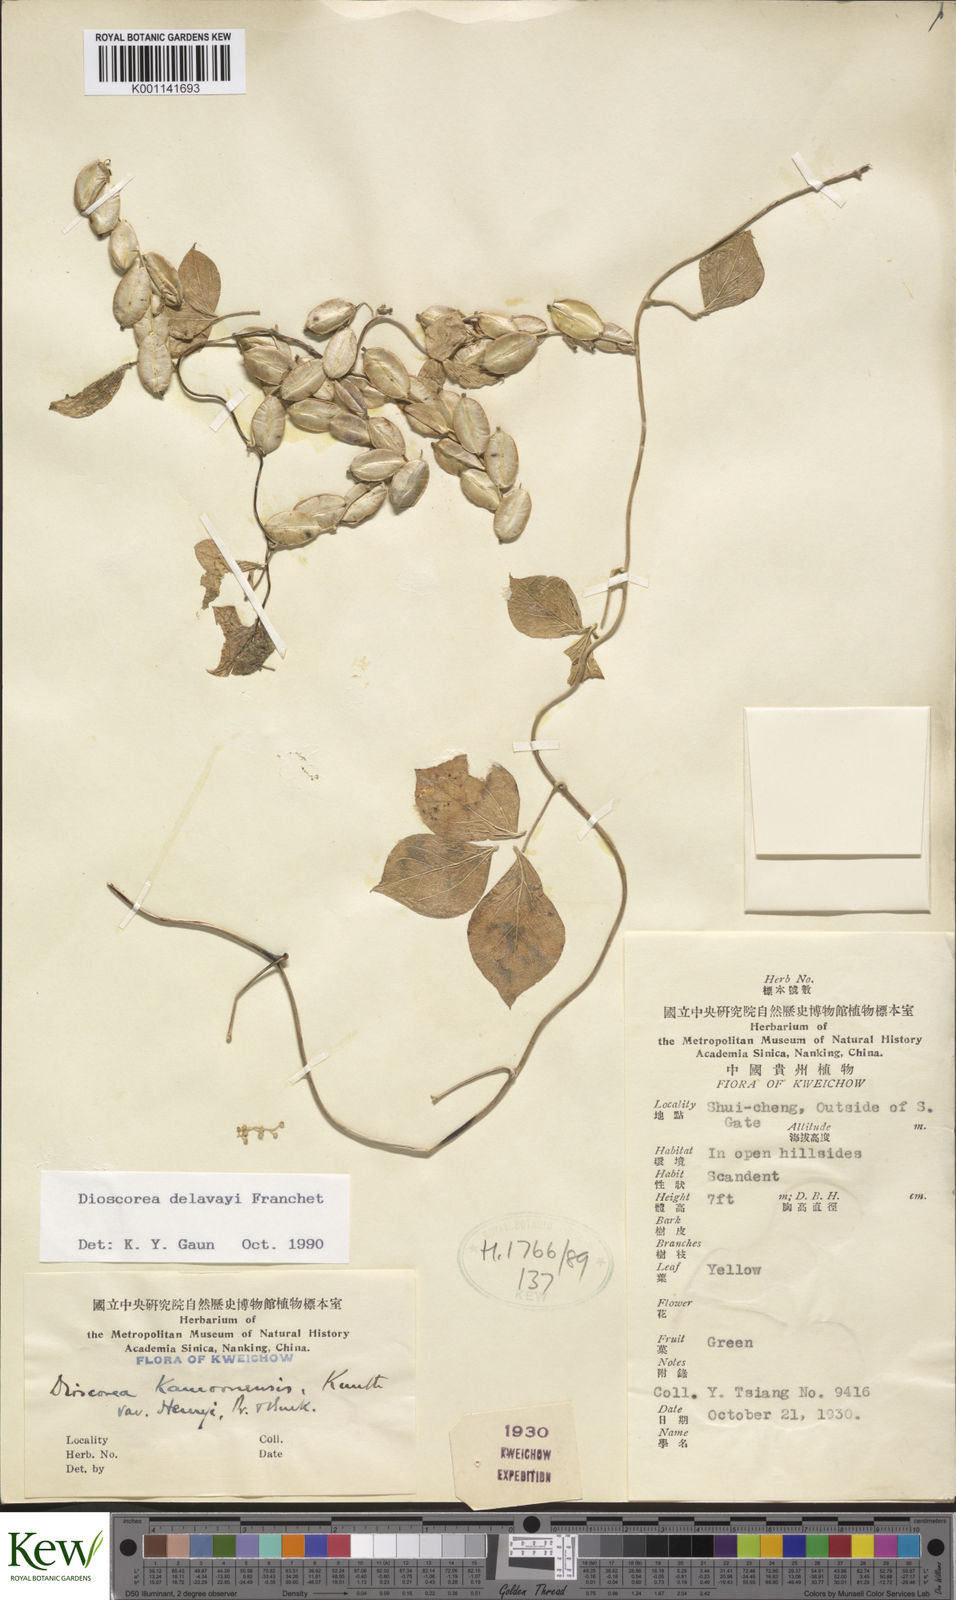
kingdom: Plantae
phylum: Tracheophyta
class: Liliopsida
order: Dioscoreales
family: Dioscoreaceae
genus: Dioscorea
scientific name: Dioscorea kamoonensis
